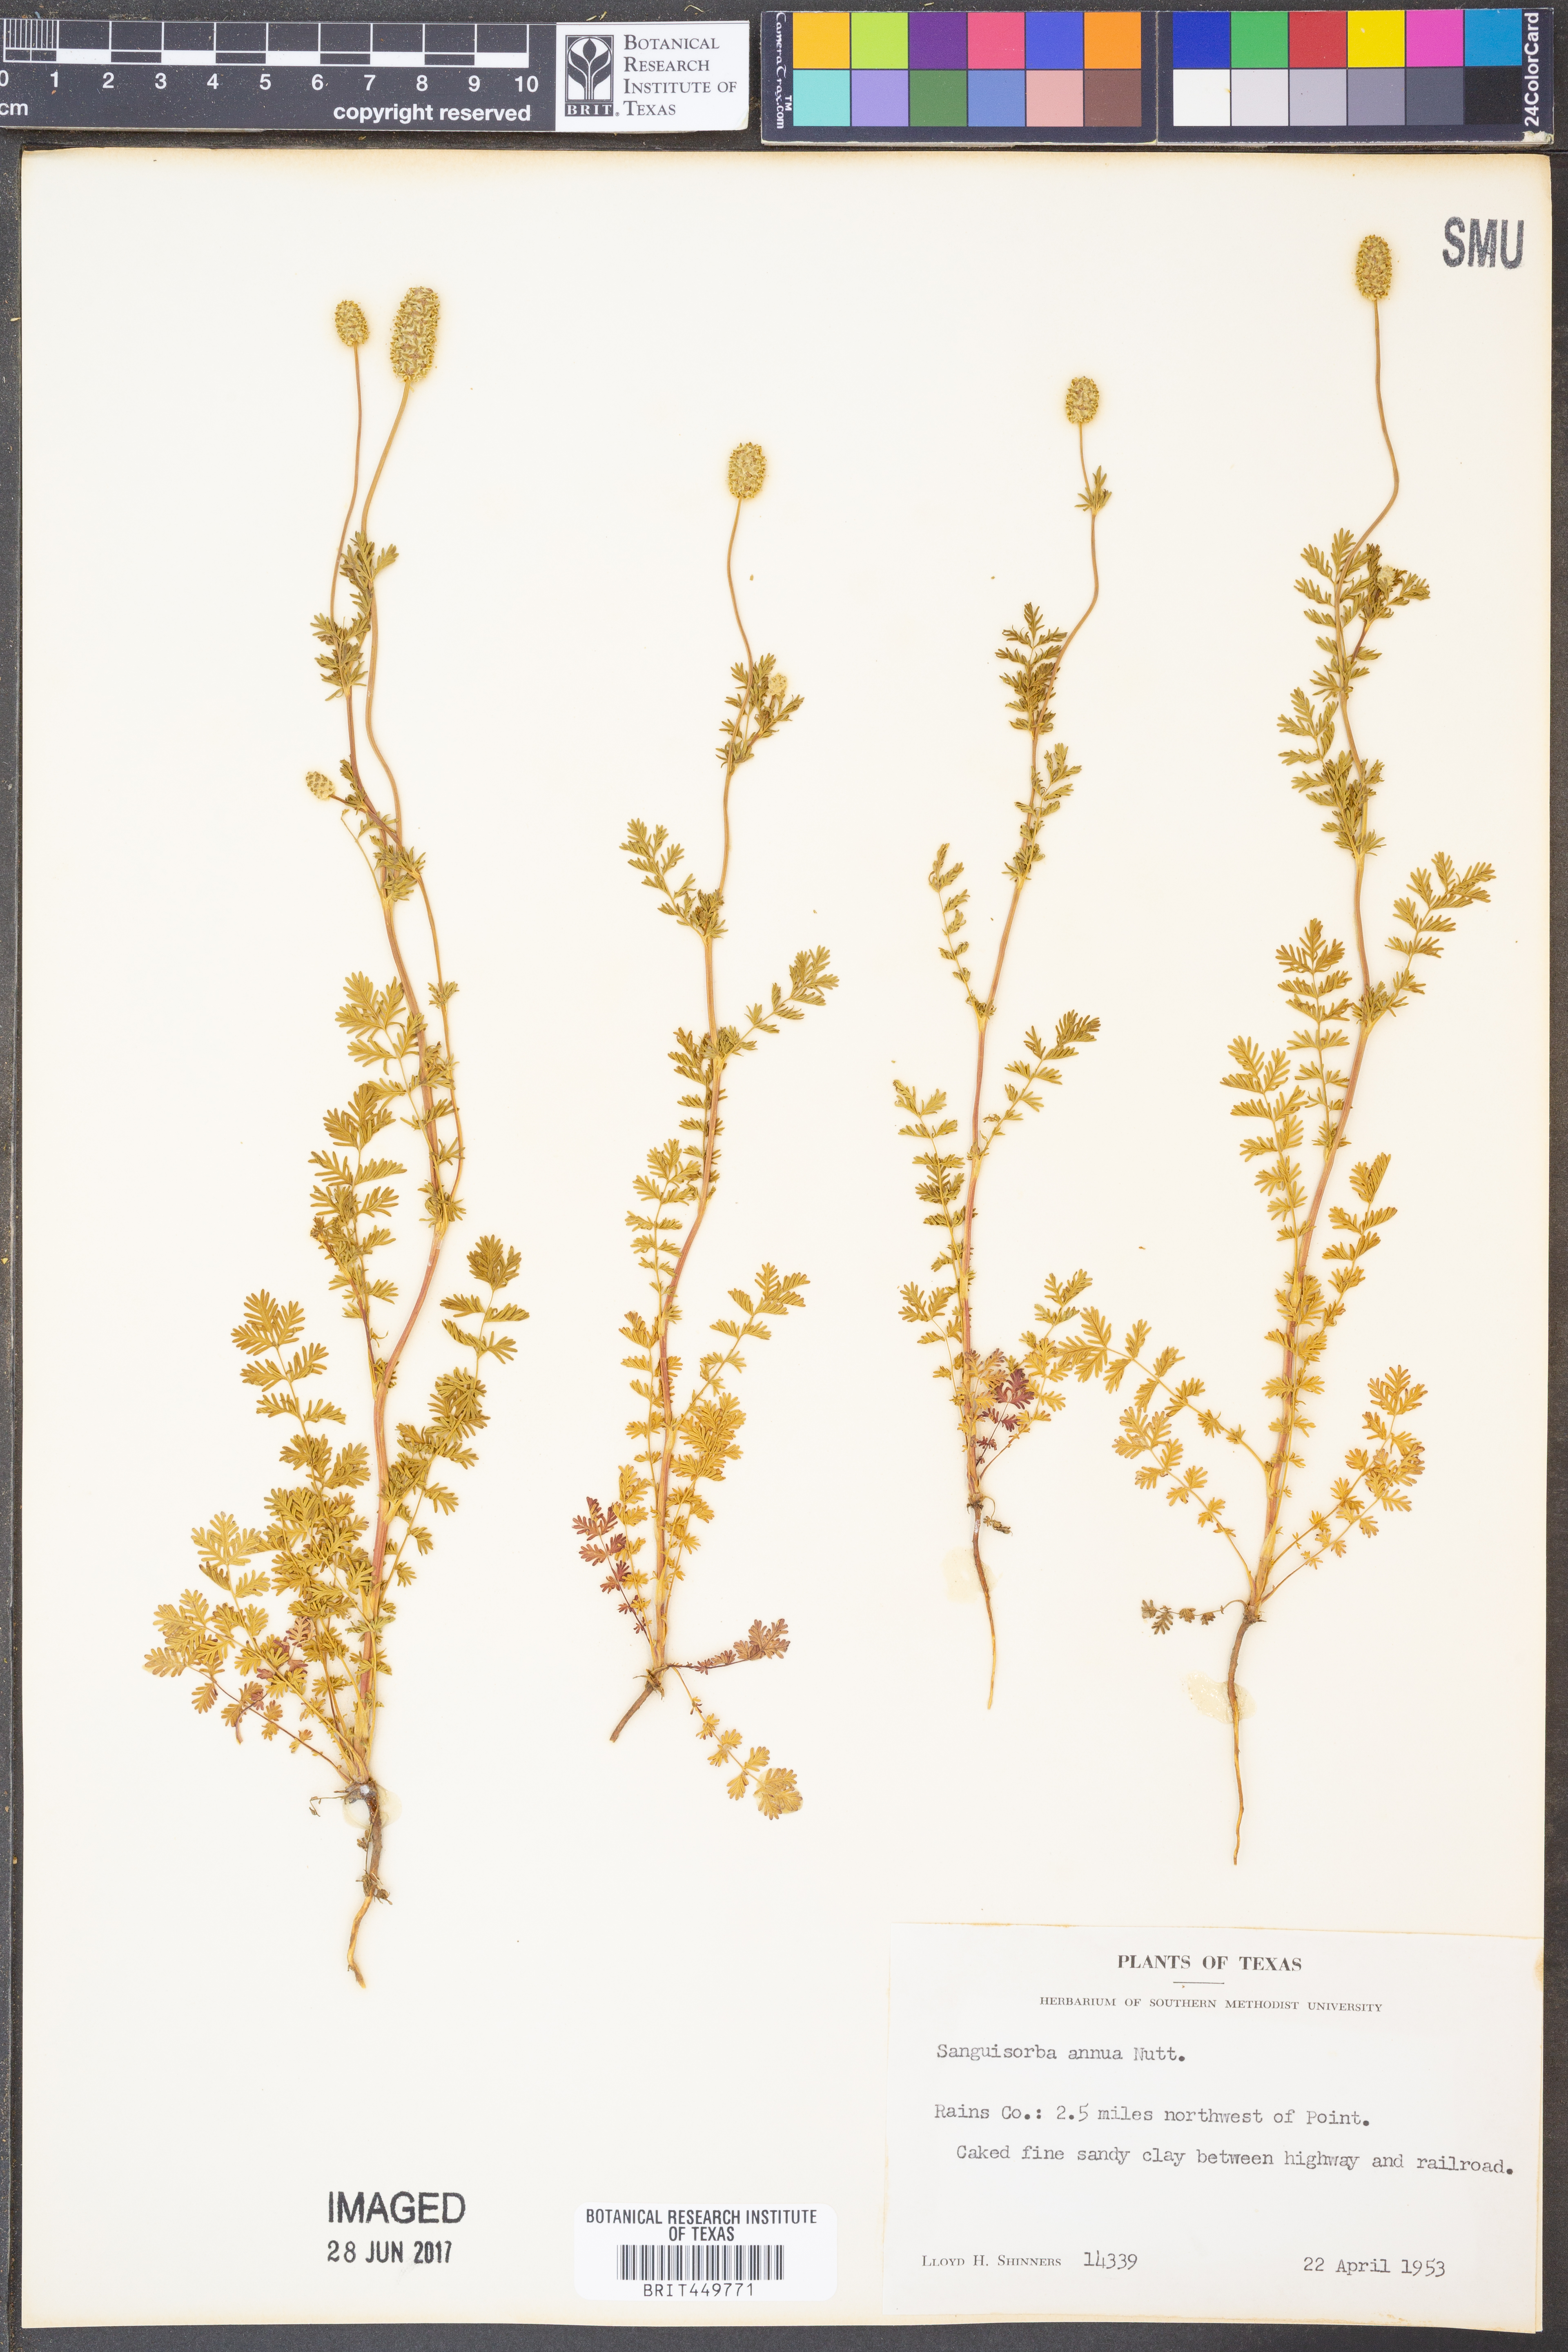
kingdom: Plantae
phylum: Tracheophyta
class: Magnoliopsida
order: Rosales
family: Rosaceae
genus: Poteridium
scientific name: Poteridium annuum
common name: Annual burnet
